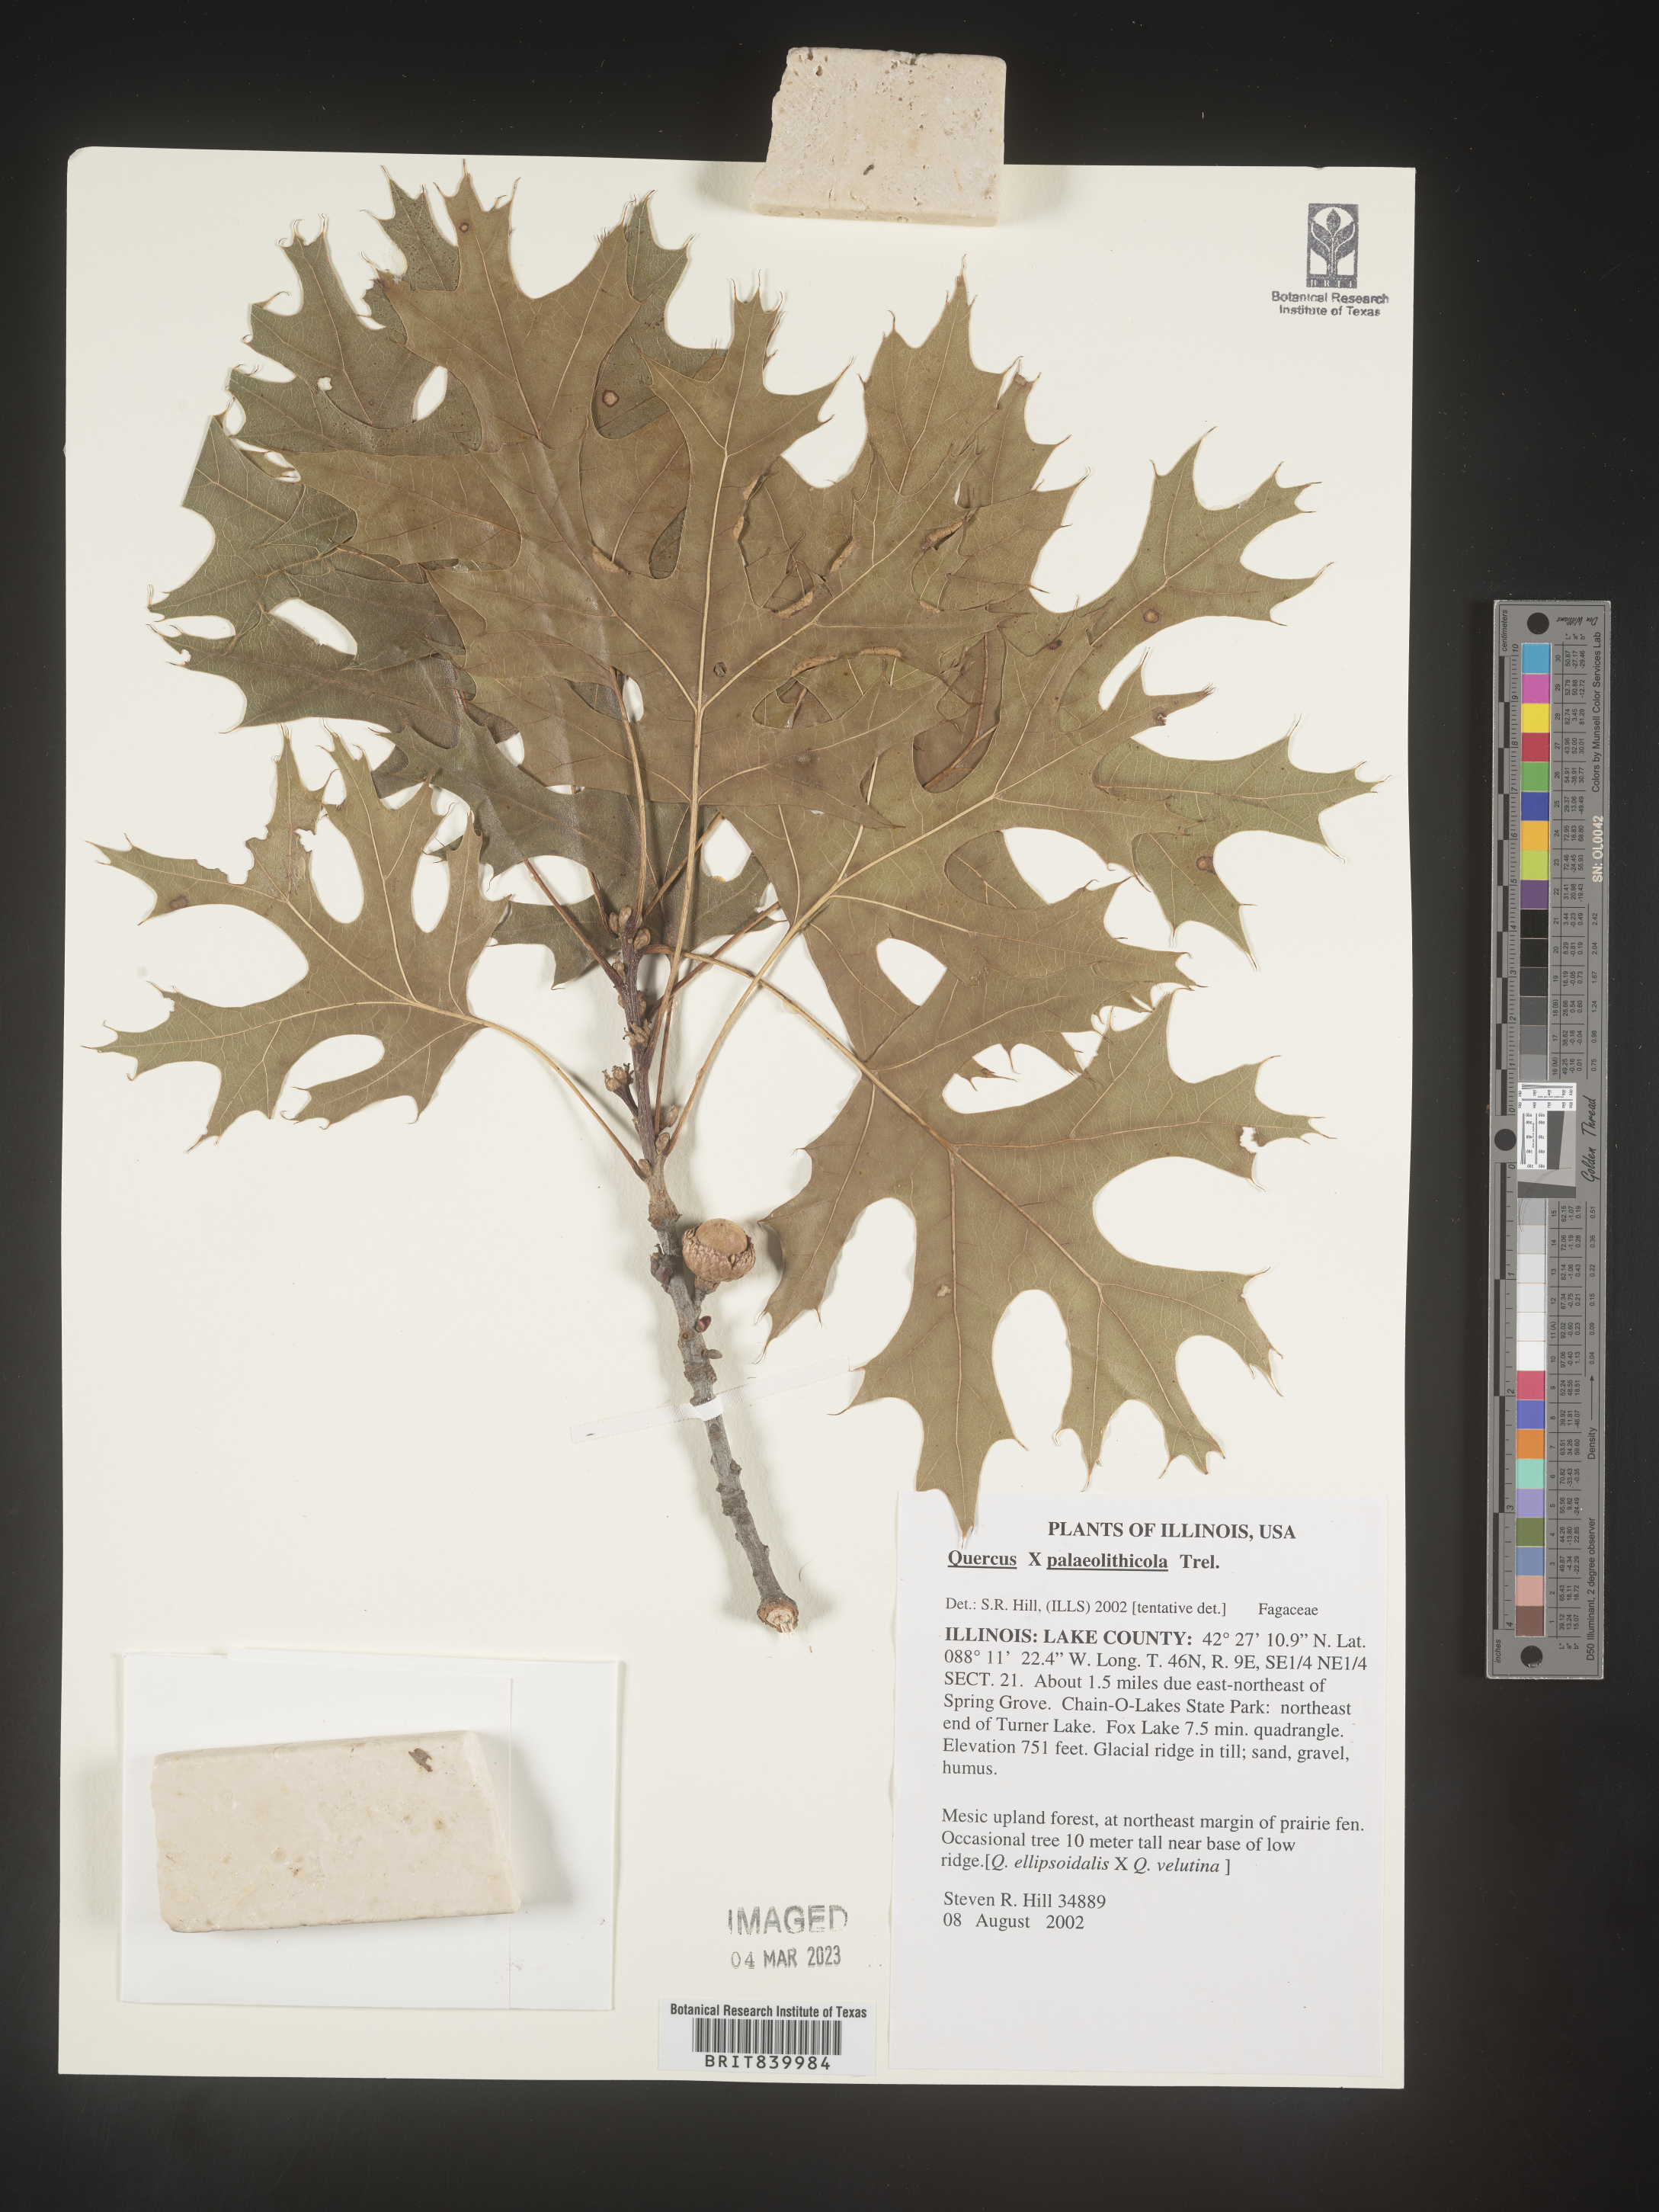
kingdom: Plantae
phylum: Tracheophyta
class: Magnoliopsida
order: Fagales
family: Fagaceae
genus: Quercus
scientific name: Quercus palaeolithicola
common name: Palaeozoic rock oak
